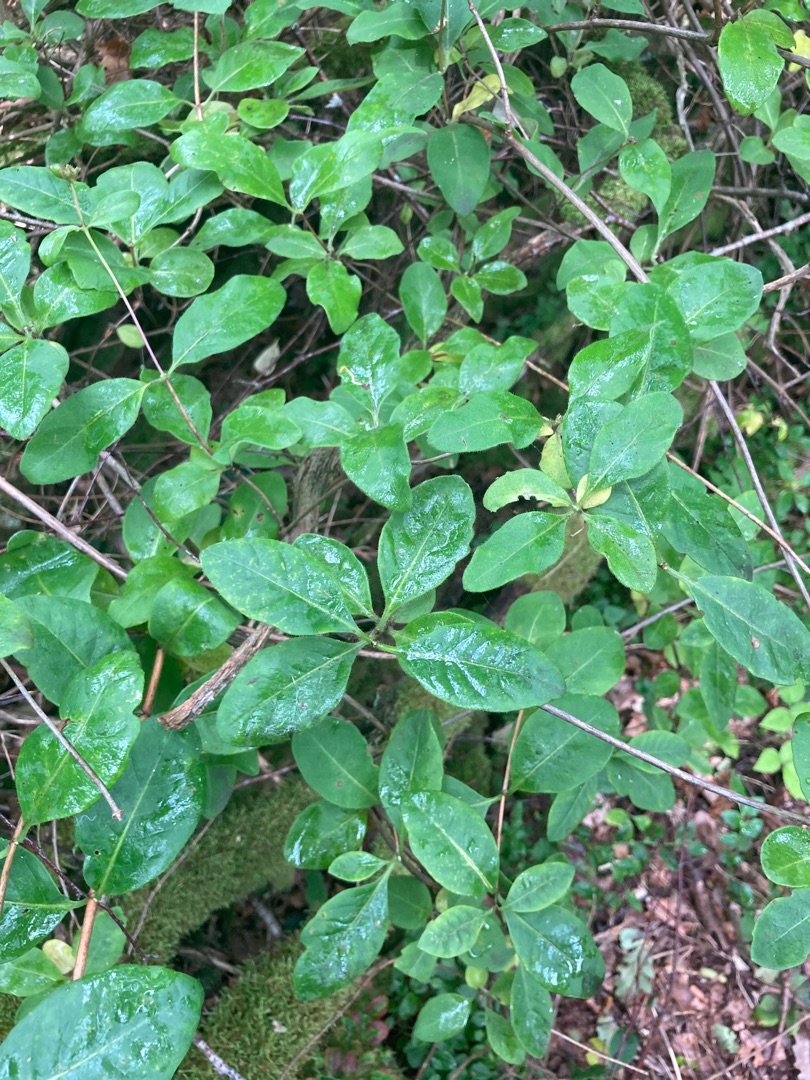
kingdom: Plantae
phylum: Tracheophyta
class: Magnoliopsida
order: Dipsacales
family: Caprifoliaceae
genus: Lonicera
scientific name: Lonicera periclymenum
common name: Almindelig gedeblad
